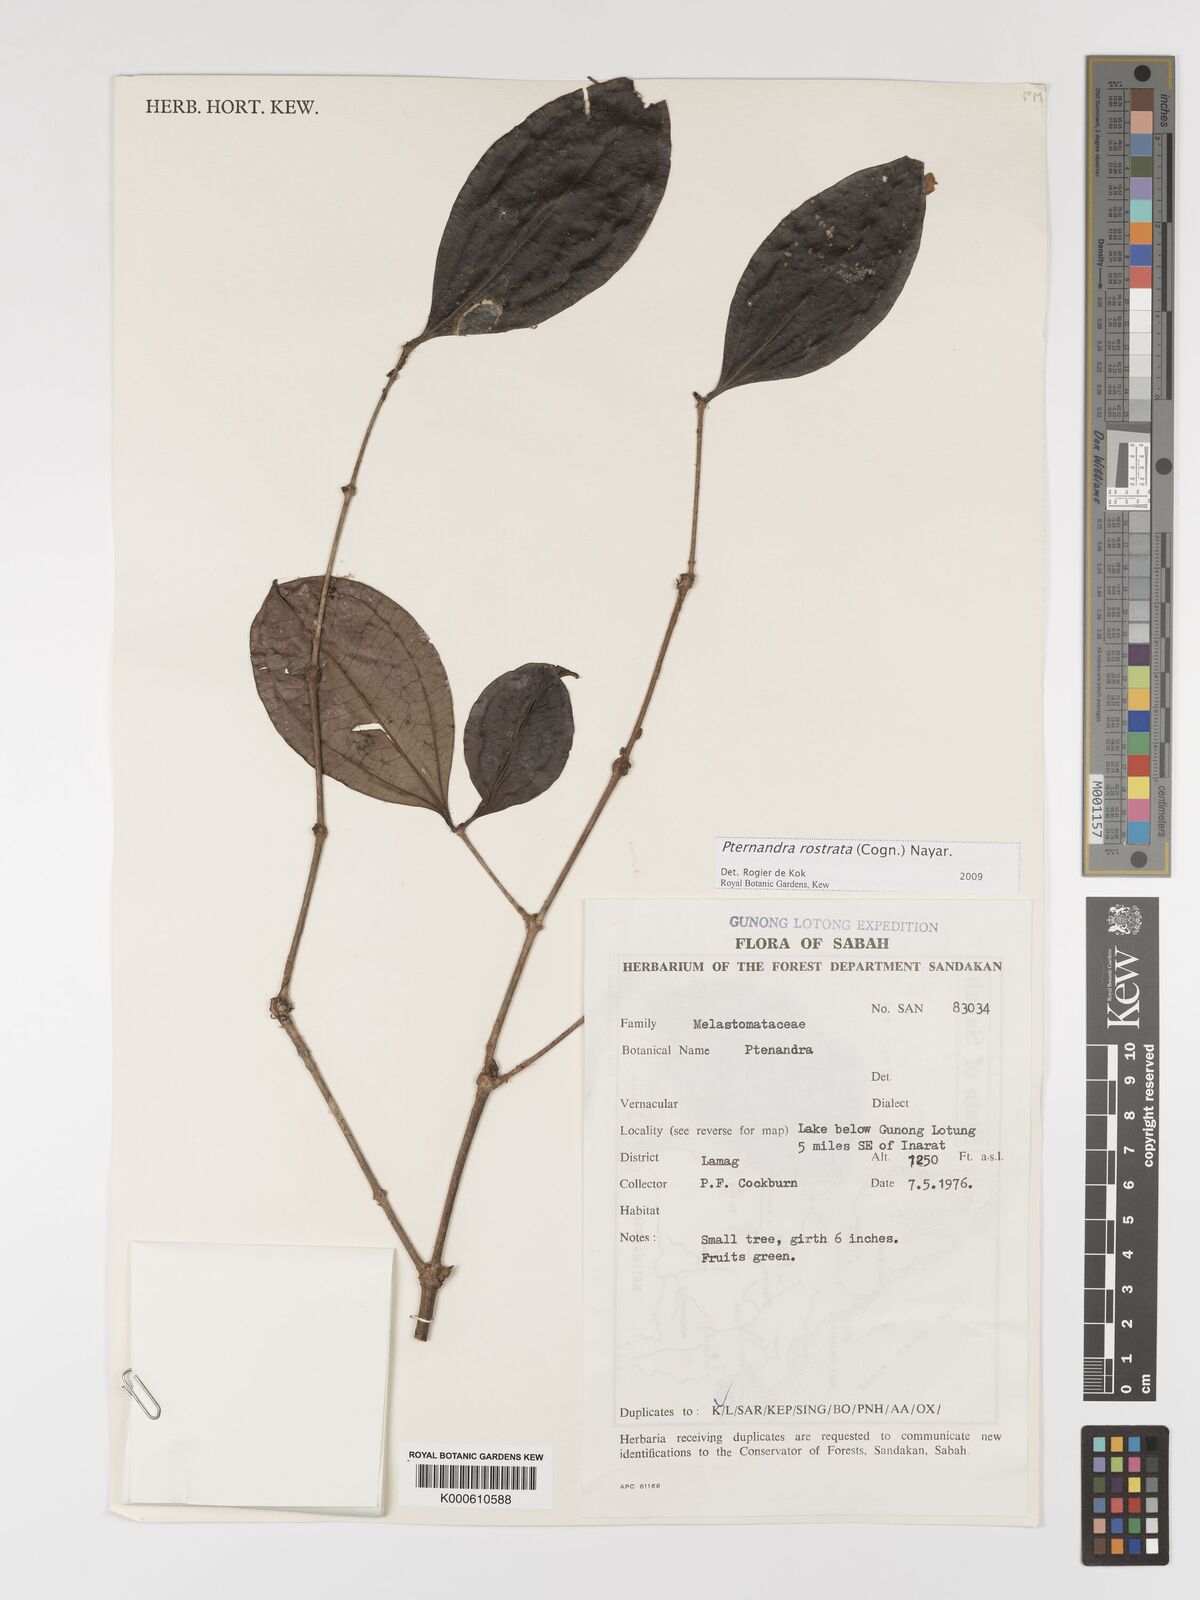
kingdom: Plantae
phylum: Tracheophyta
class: Magnoliopsida
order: Myrtales
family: Melastomataceae
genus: Pternandra
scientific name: Pternandra rostrata
